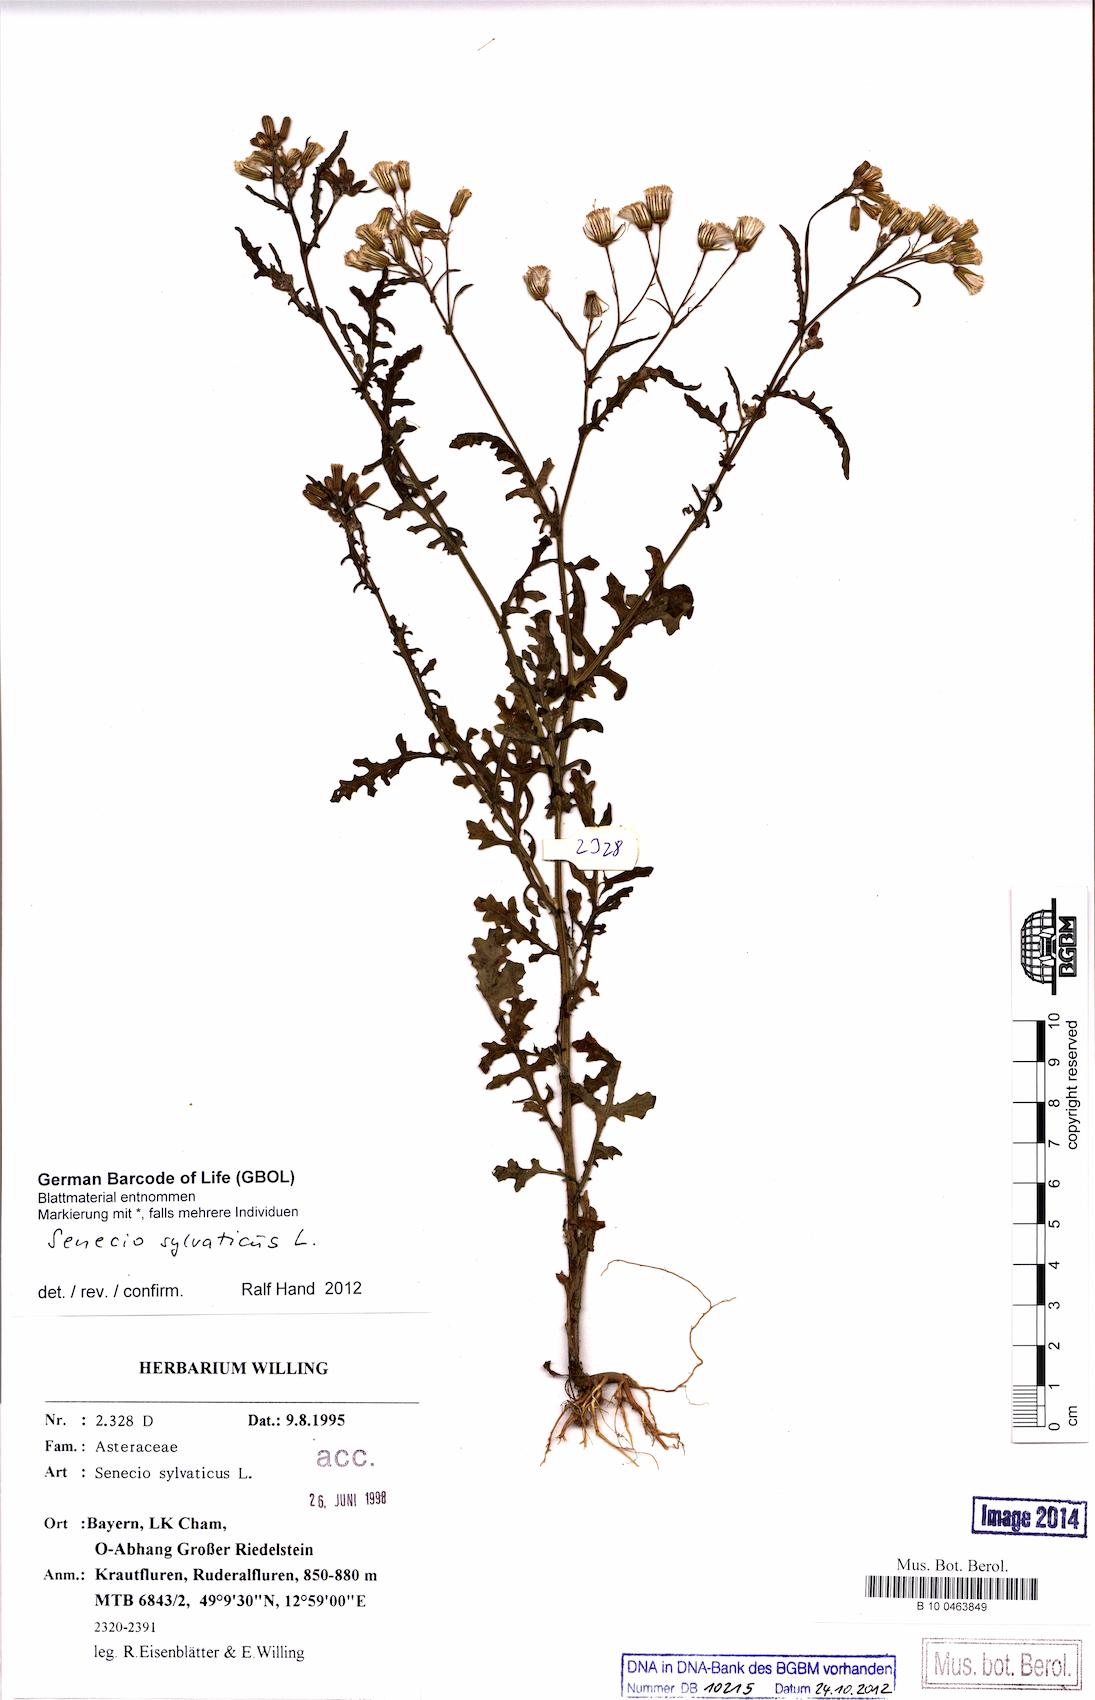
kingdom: Plantae
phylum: Tracheophyta
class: Magnoliopsida
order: Asterales
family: Asteraceae
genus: Senecio
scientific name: Senecio sylvaticus
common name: Woodland ragwort
